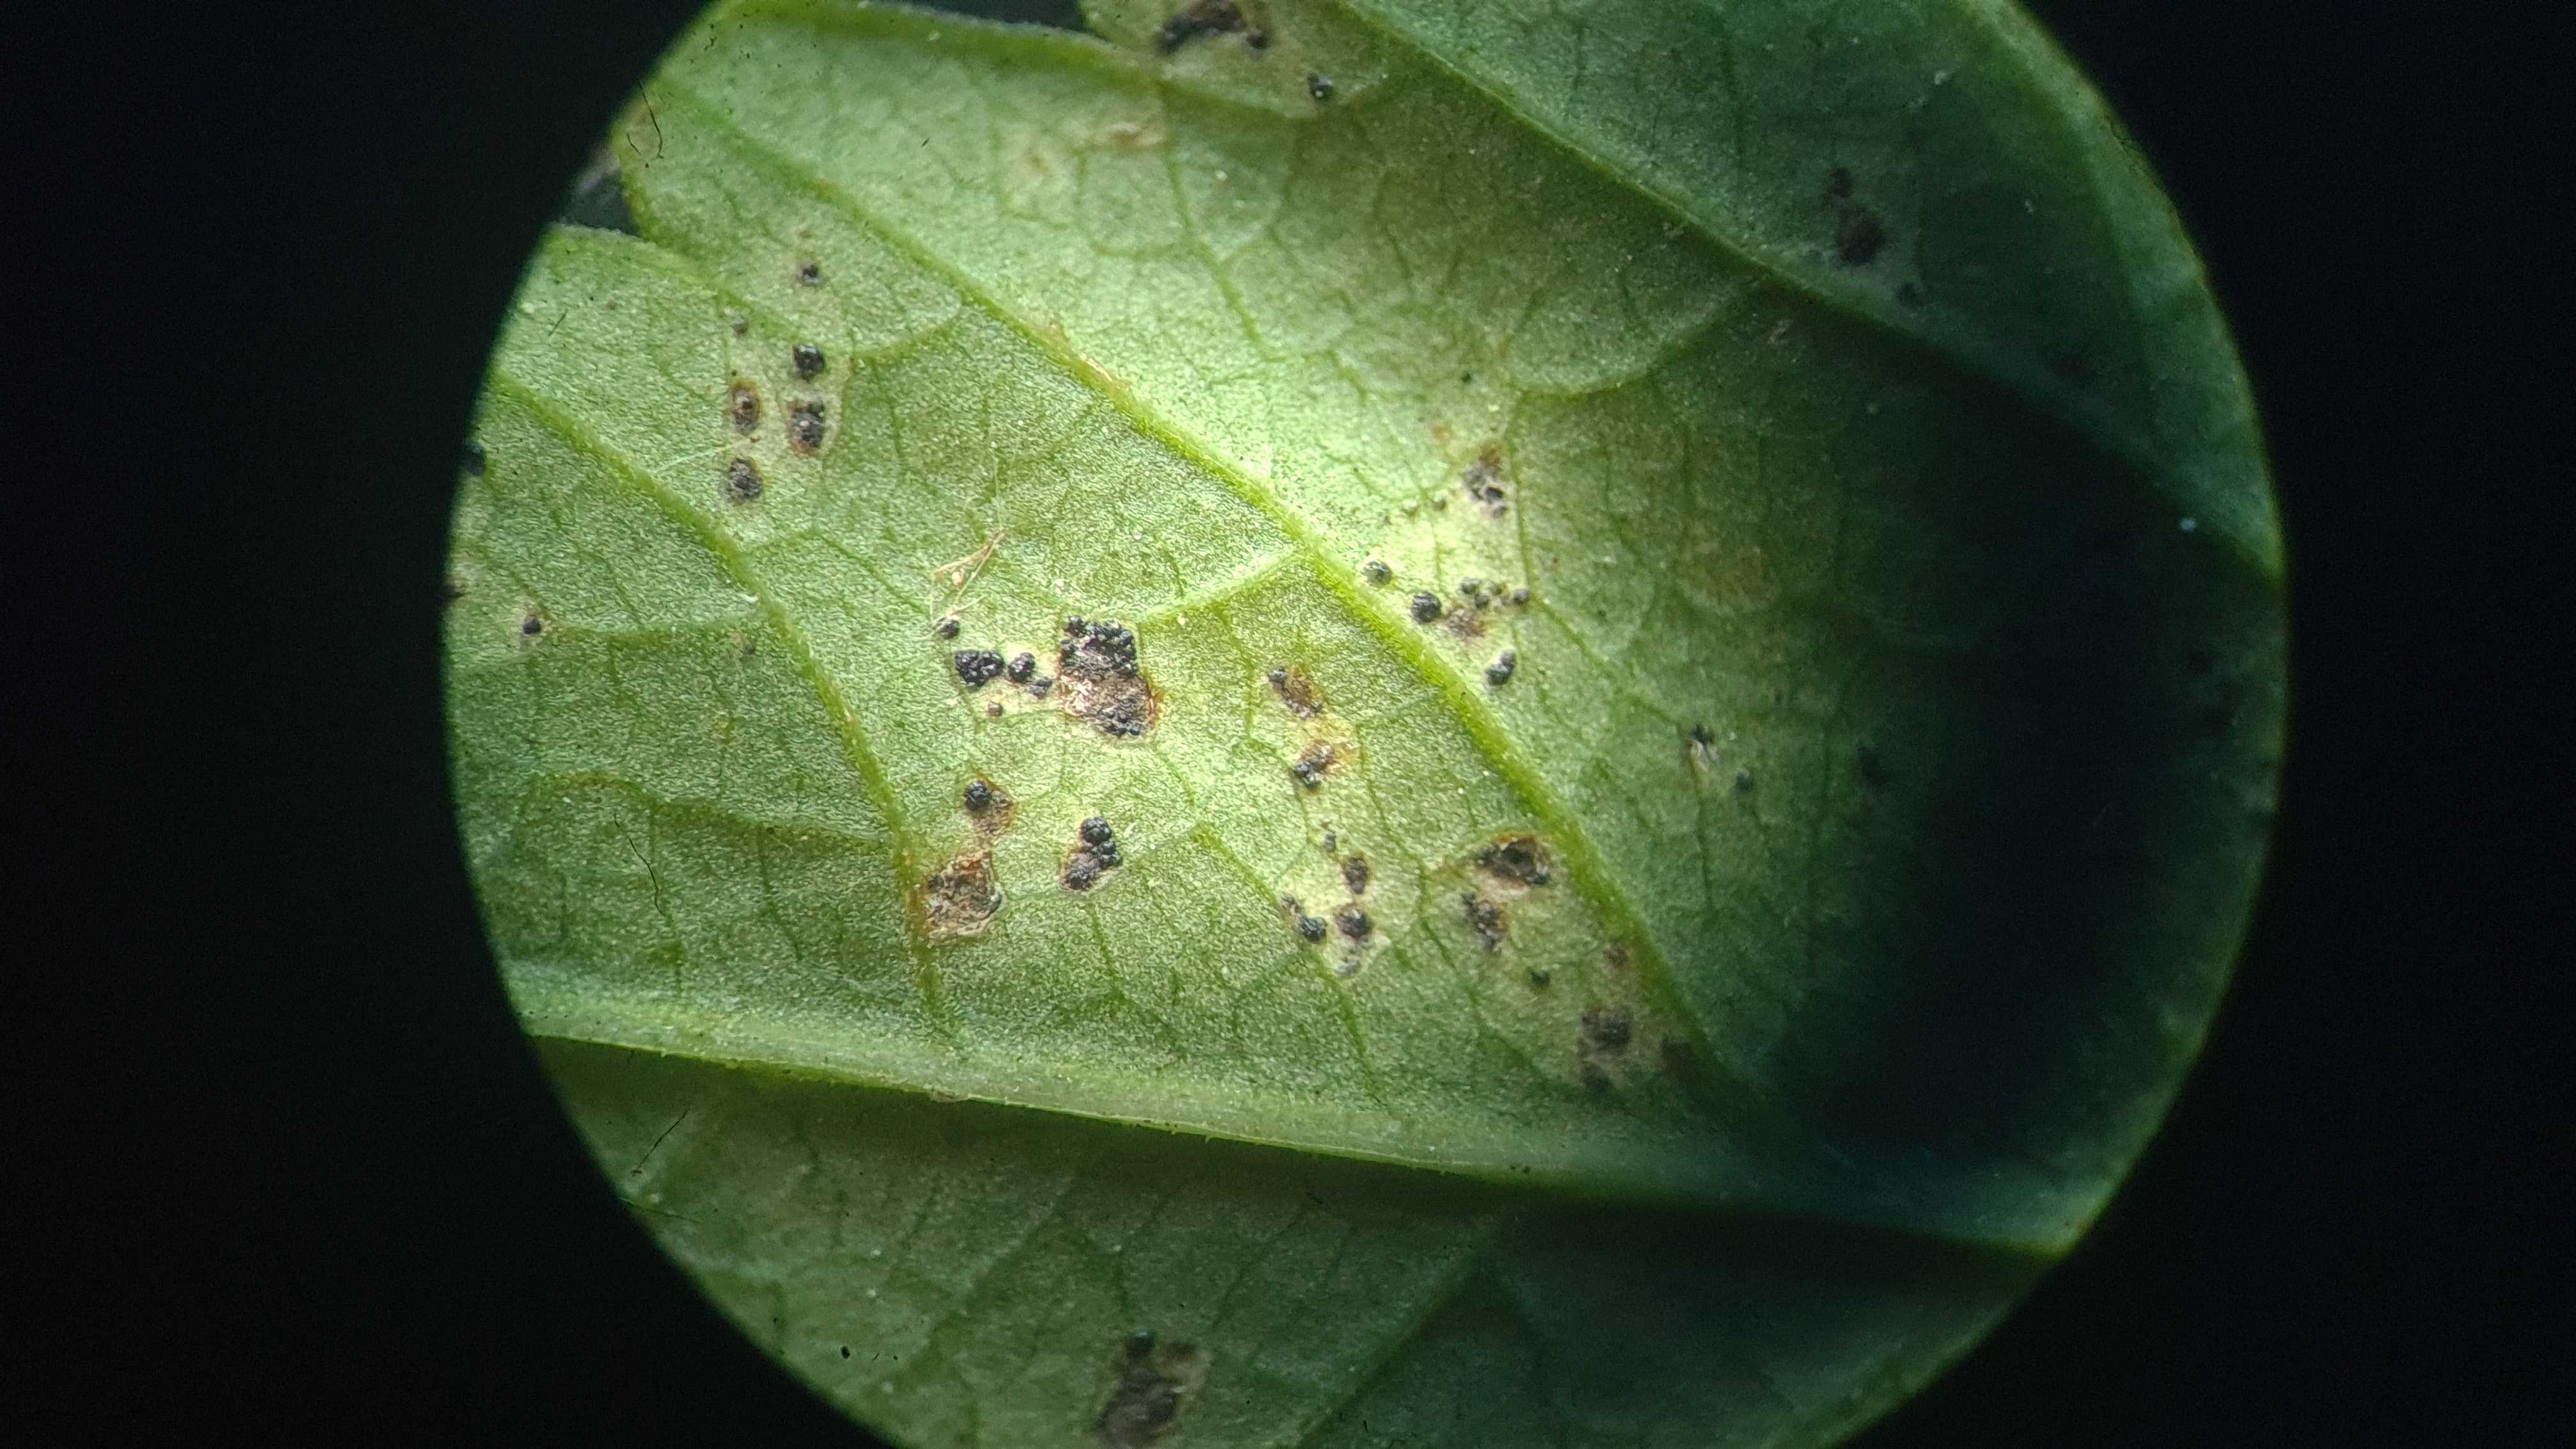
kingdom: Fungi
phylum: Basidiomycota
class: Pucciniomycetes
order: Pucciniales
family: Pucciniaceae
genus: Puccinia
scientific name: Puccinia
